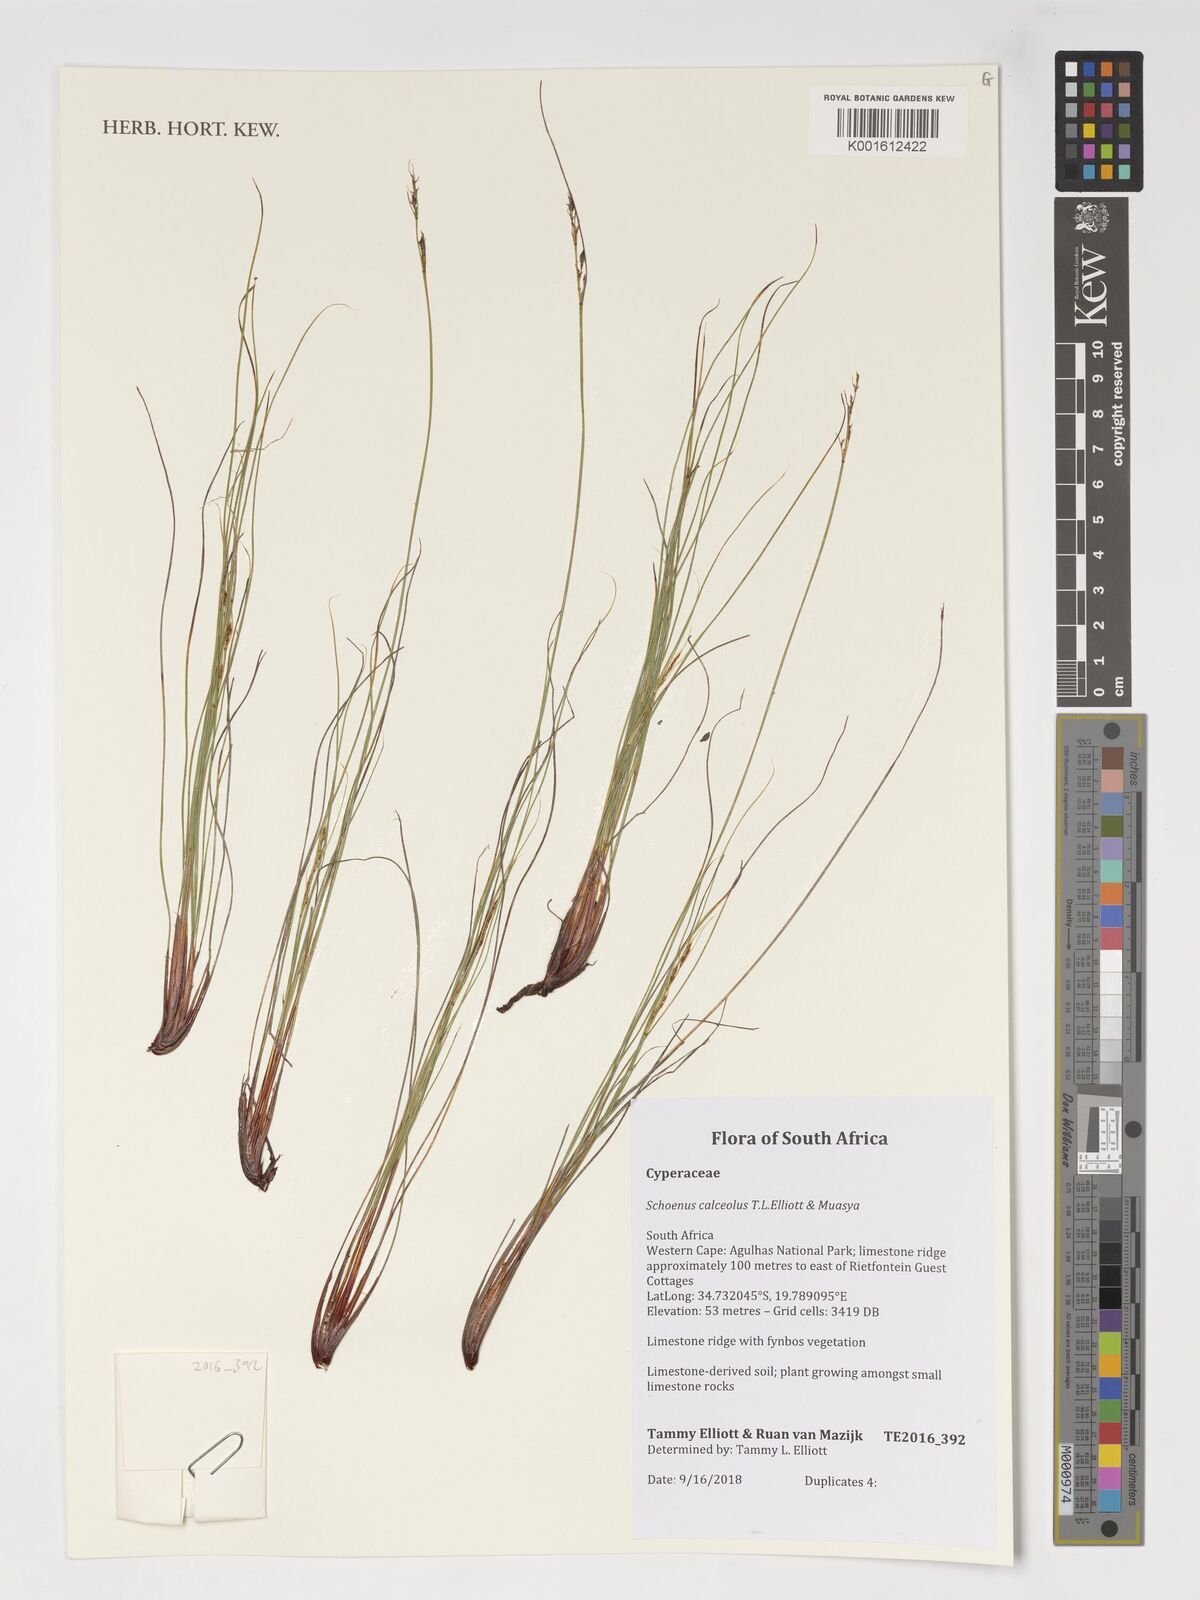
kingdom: Plantae
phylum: Tracheophyta
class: Liliopsida
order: Poales
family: Cyperaceae
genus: Schoenus
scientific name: Schoenus calceolus
